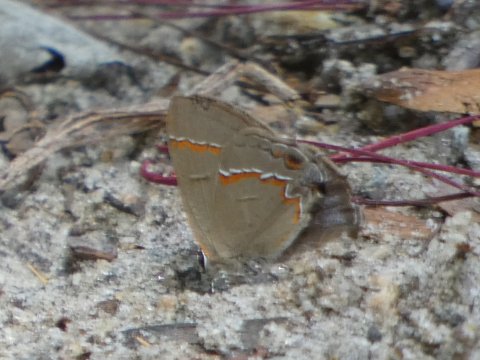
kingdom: Animalia
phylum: Arthropoda
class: Insecta
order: Lepidoptera
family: Lycaenidae
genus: Calycopis
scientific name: Calycopis cecrops
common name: Red-banded Hairstreak
